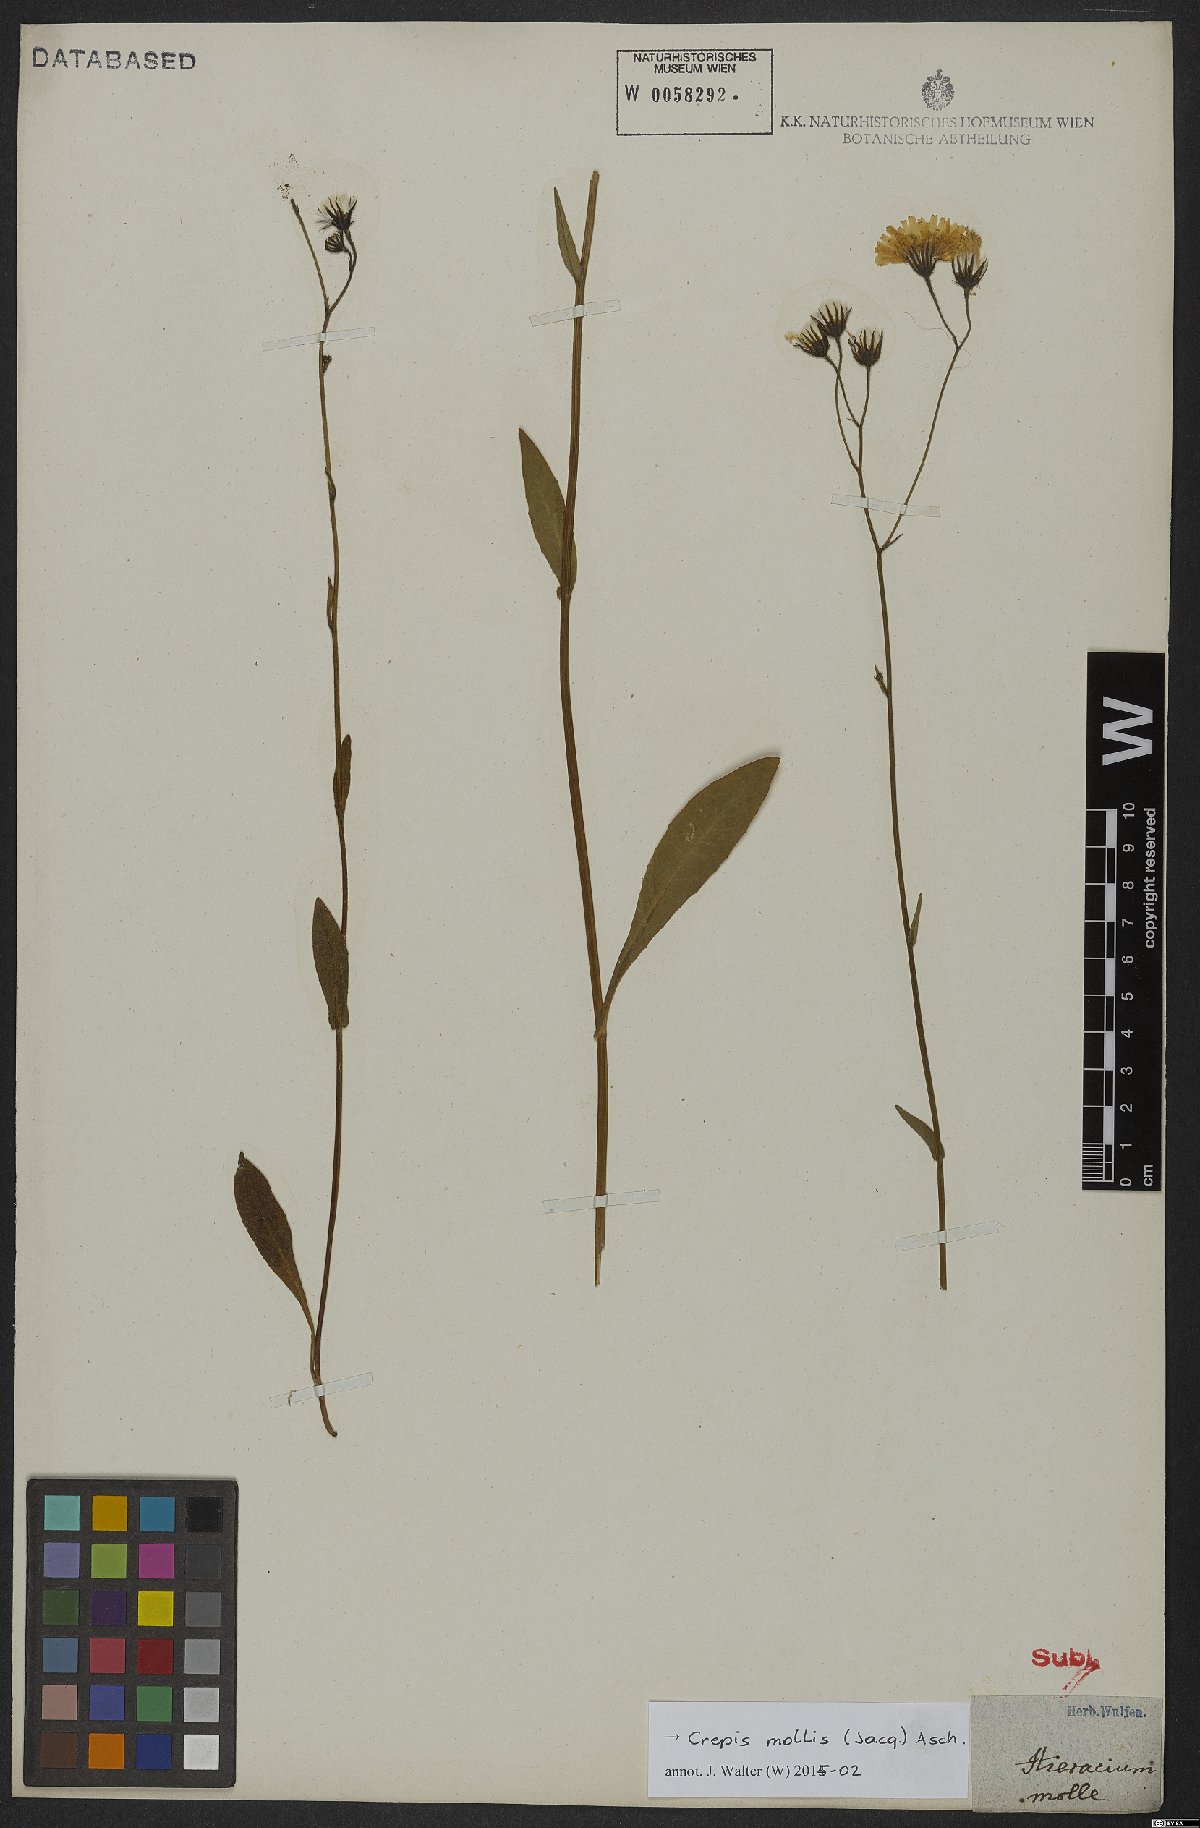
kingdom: Plantae
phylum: Tracheophyta
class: Magnoliopsida
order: Asterales
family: Asteraceae
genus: Crepis
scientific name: Crepis mollis
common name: Northern hawk's-beard
